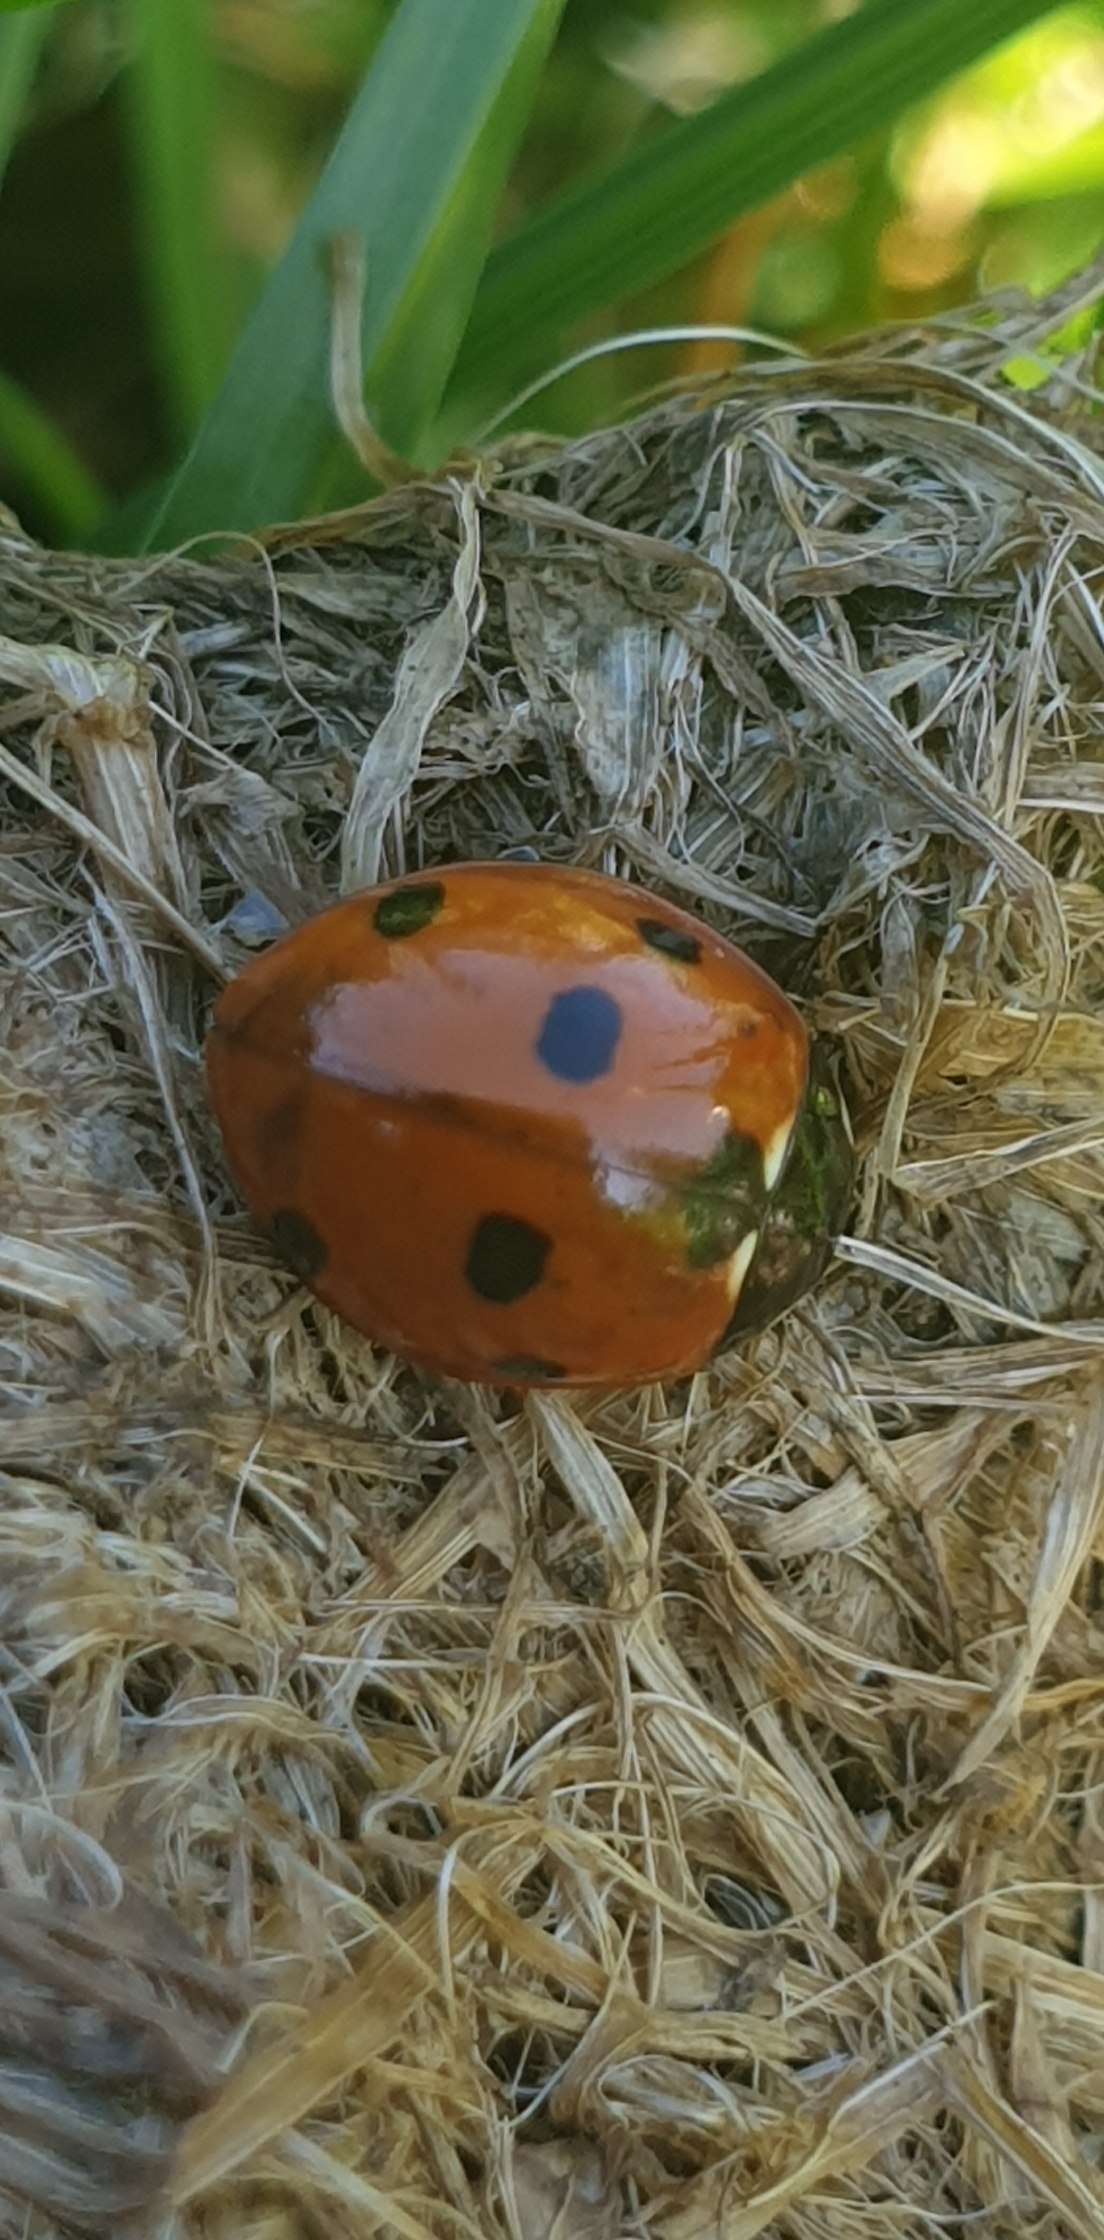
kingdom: Animalia
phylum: Arthropoda
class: Insecta
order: Coleoptera
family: Coccinellidae
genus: Coccinella
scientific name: Coccinella septempunctata
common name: Syvplettet mariehøne
